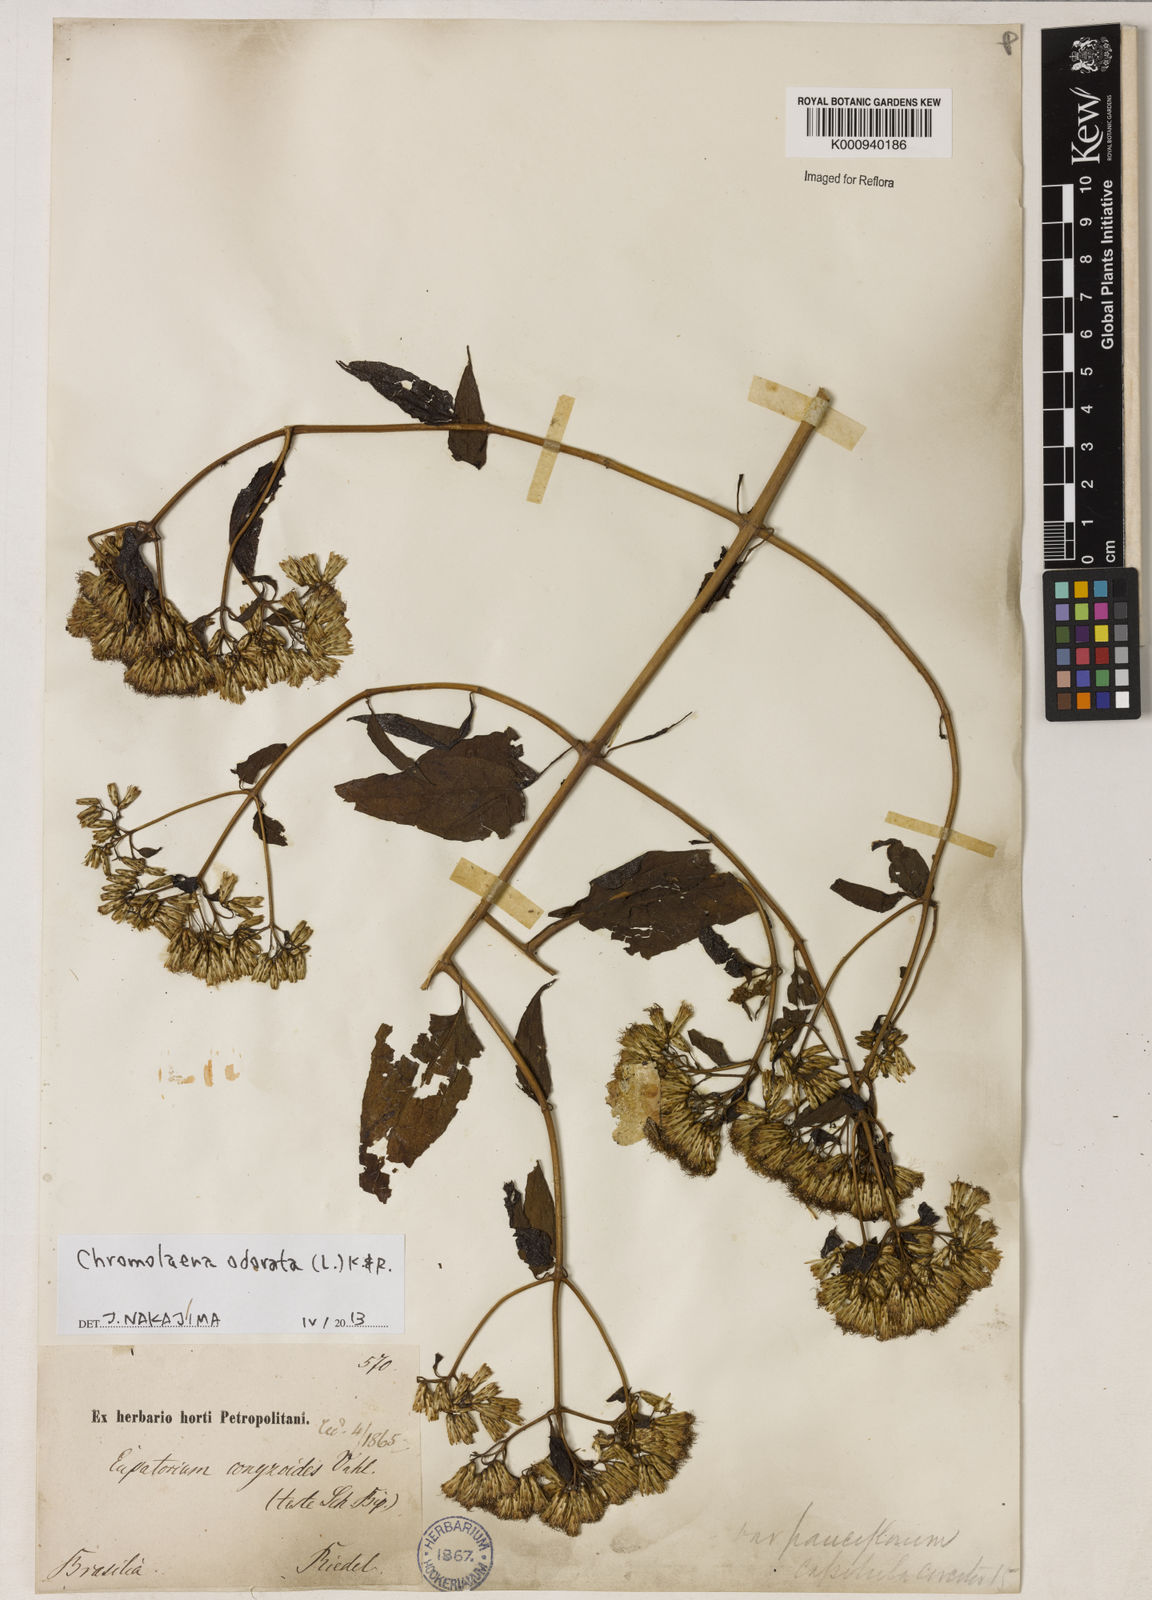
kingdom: Plantae
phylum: Tracheophyta
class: Magnoliopsida
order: Asterales
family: Asteraceae
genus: Chromolaena
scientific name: Chromolaena odorata
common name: Siamweed
